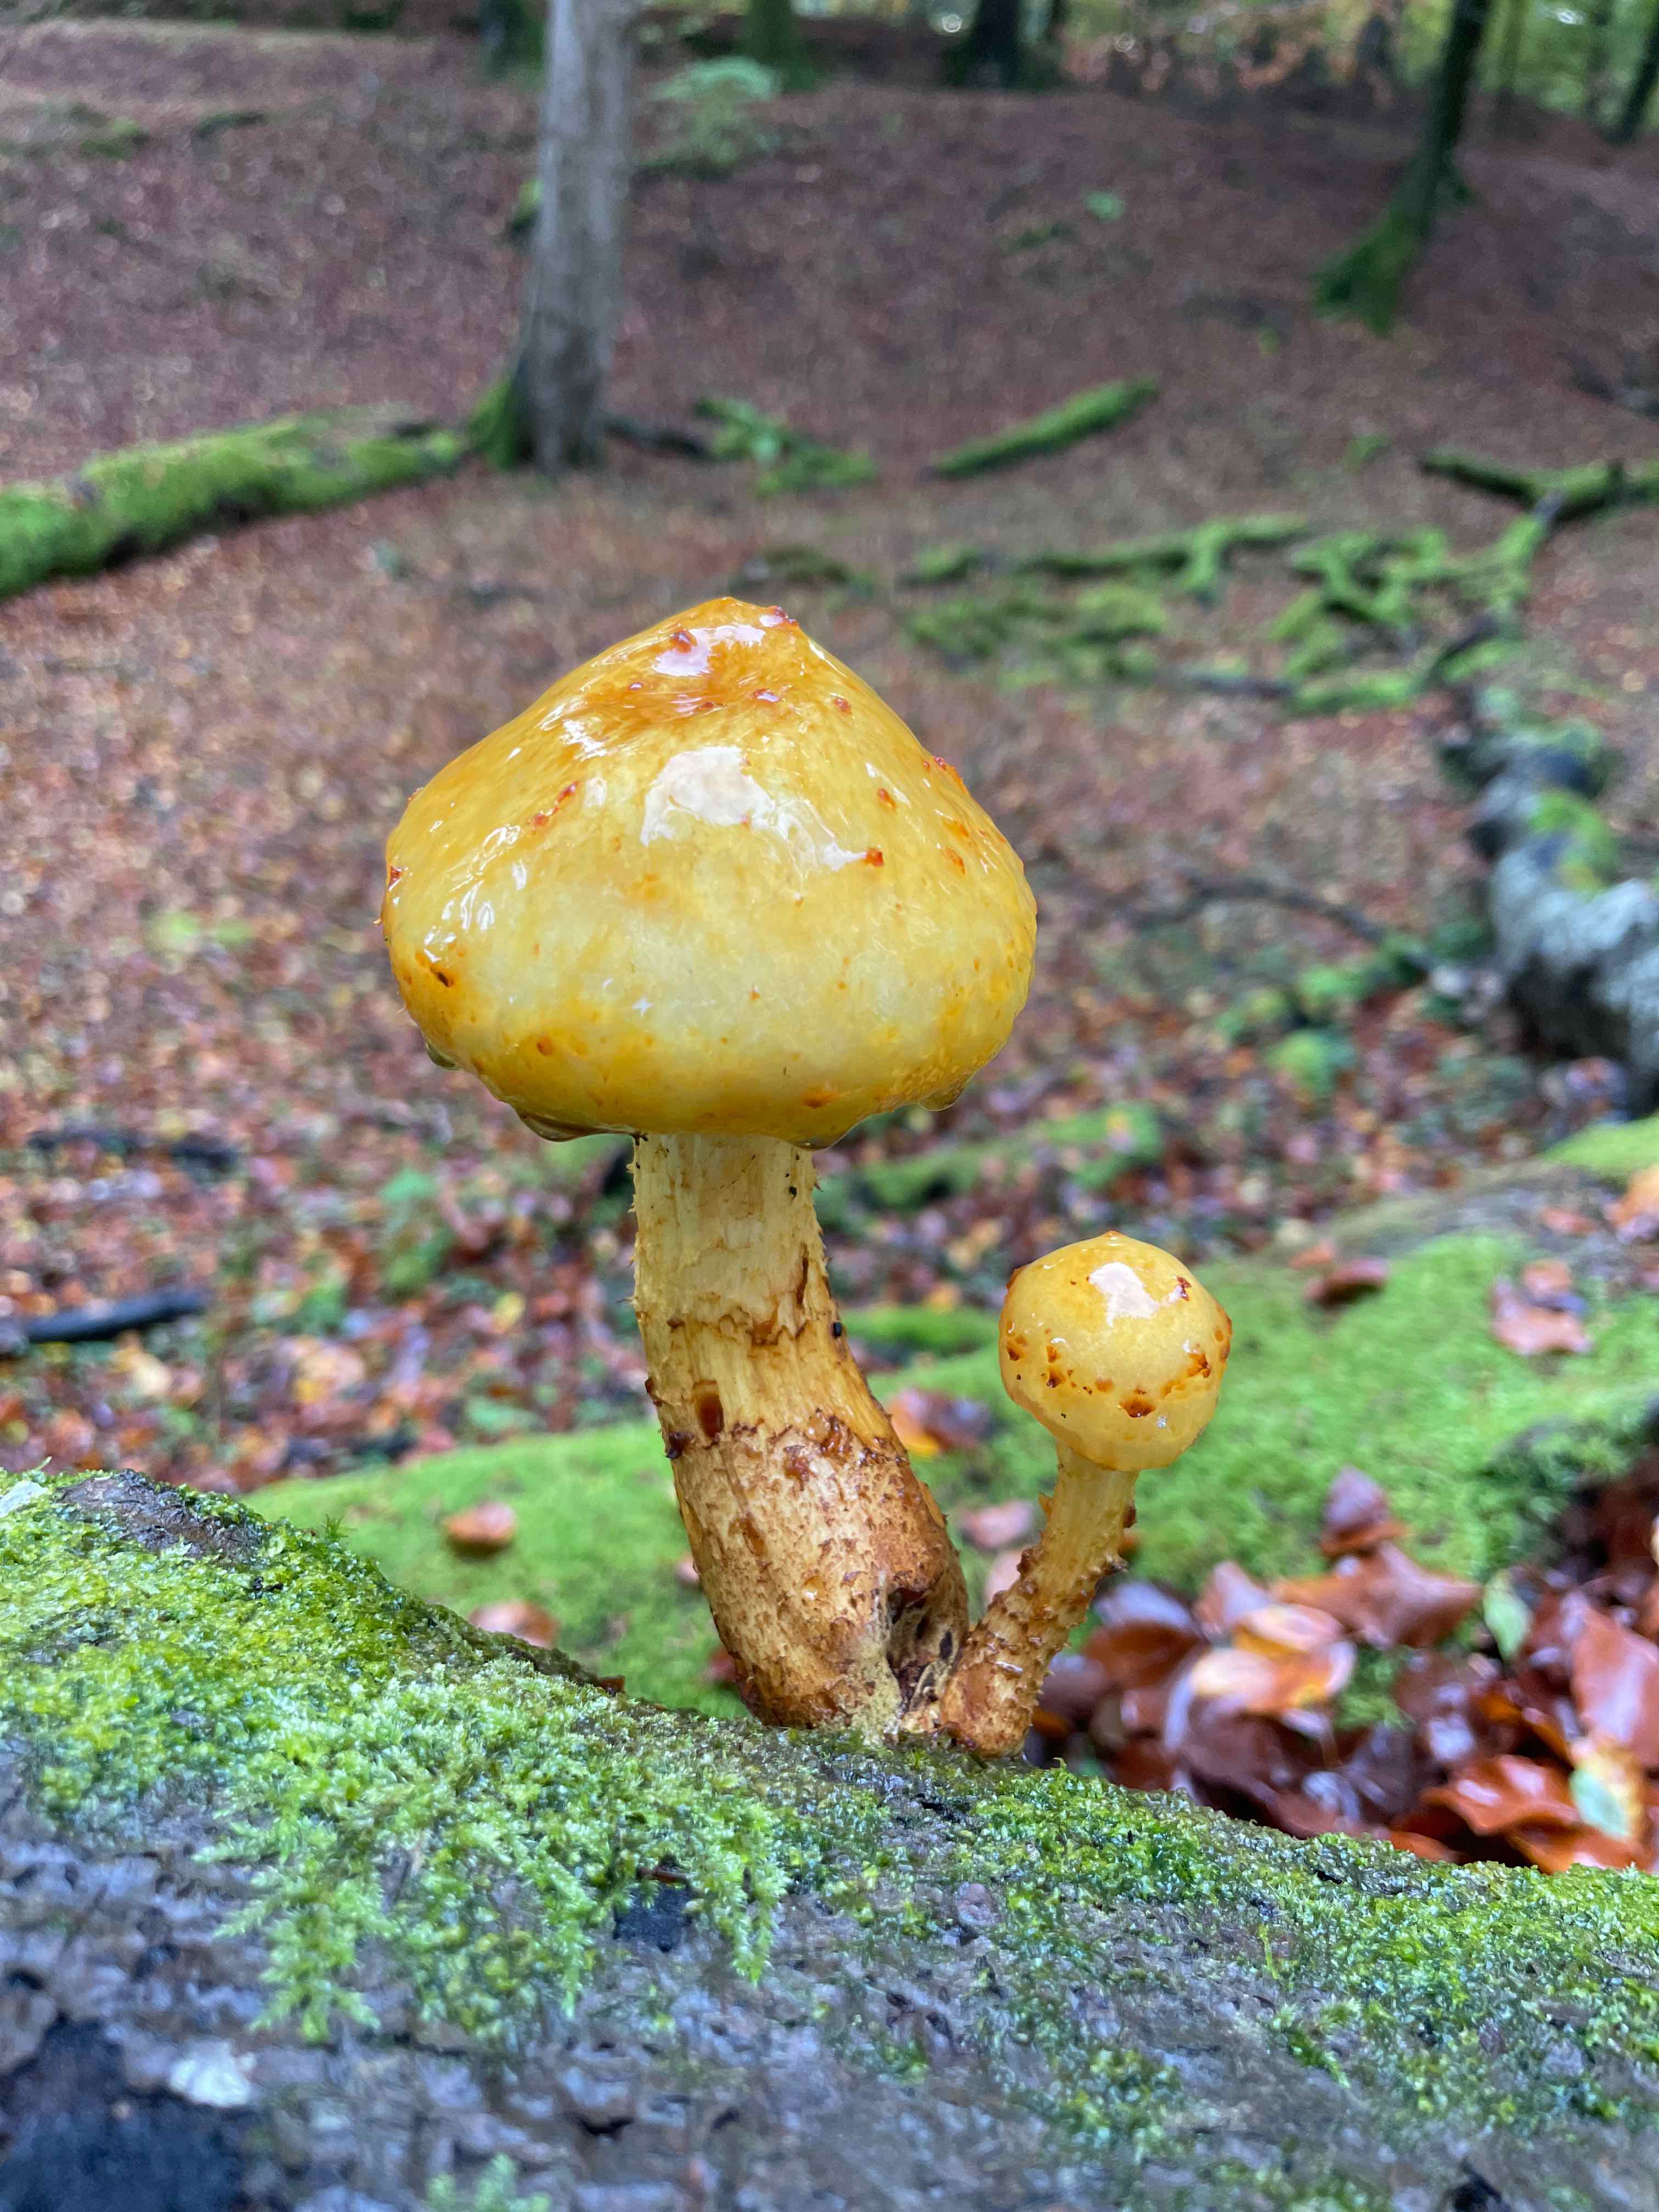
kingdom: Fungi
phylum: Basidiomycota
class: Agaricomycetes
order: Agaricales
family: Strophariaceae
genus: Pholiota
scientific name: Pholiota adiposa
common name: højtsiddende skælhat
